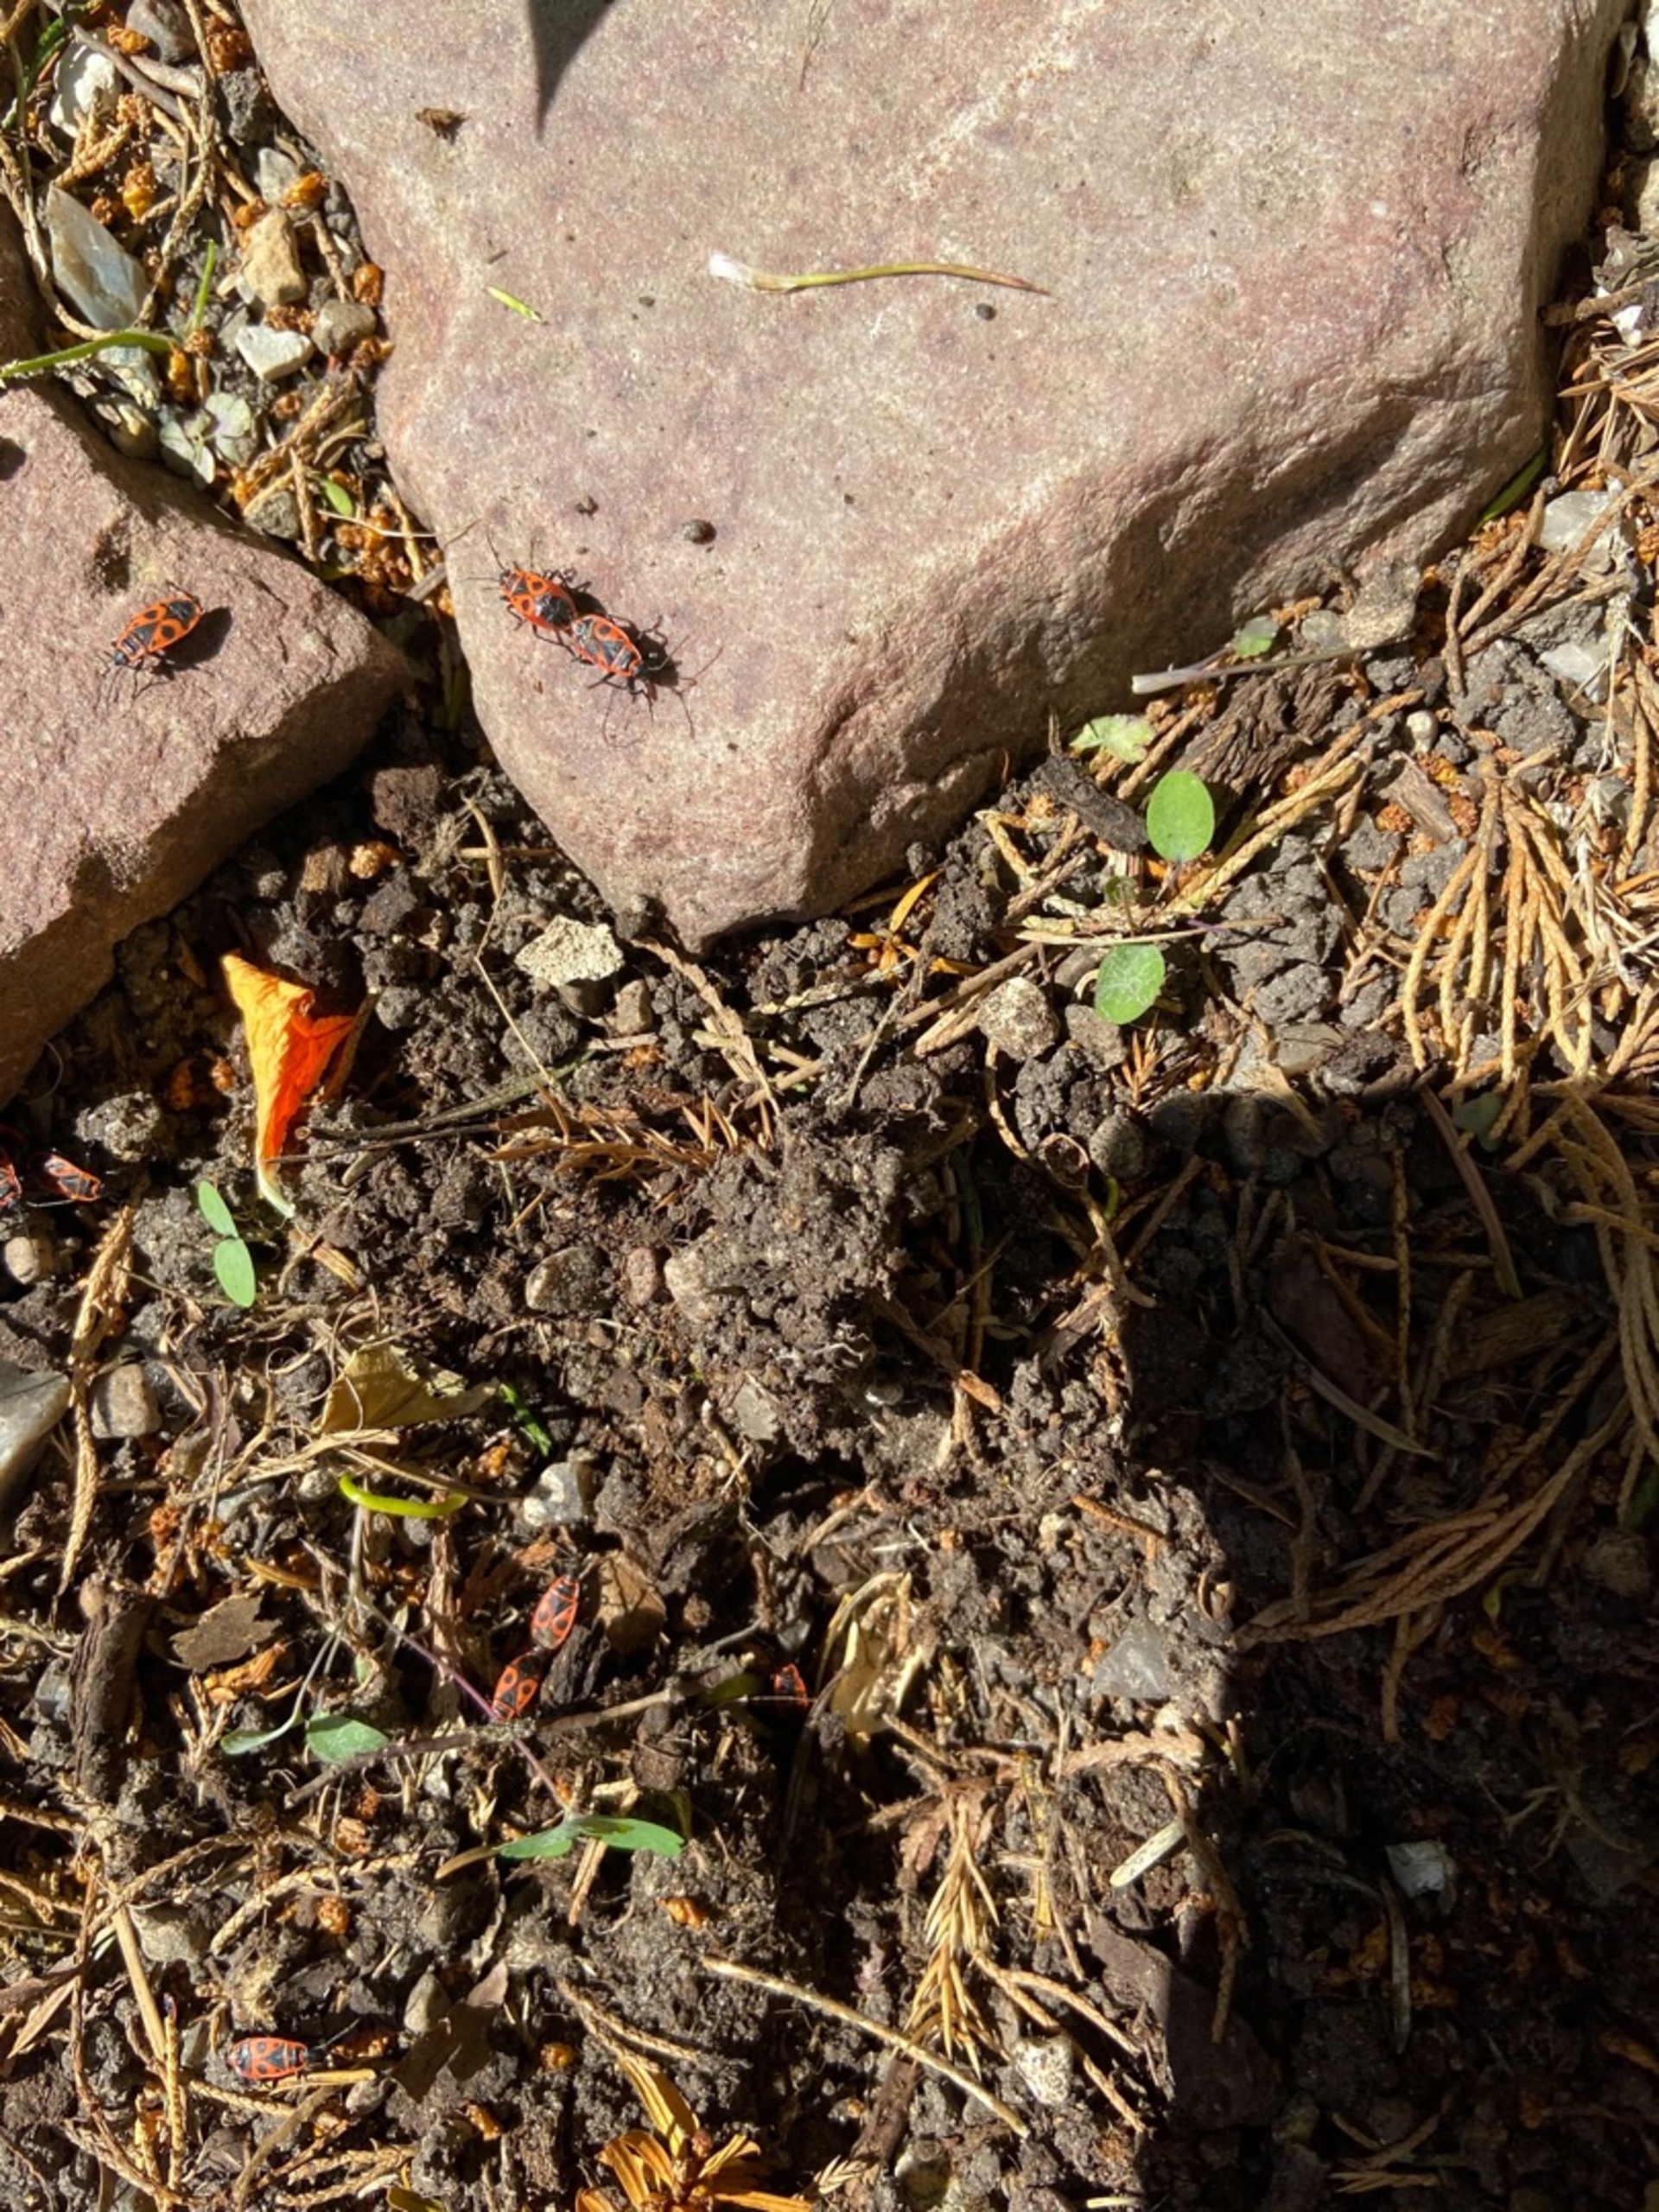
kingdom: Animalia
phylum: Arthropoda
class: Insecta
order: Hemiptera
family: Pyrrhocoridae
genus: Pyrrhocoris
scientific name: Pyrrhocoris apterus
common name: Ildtæge
